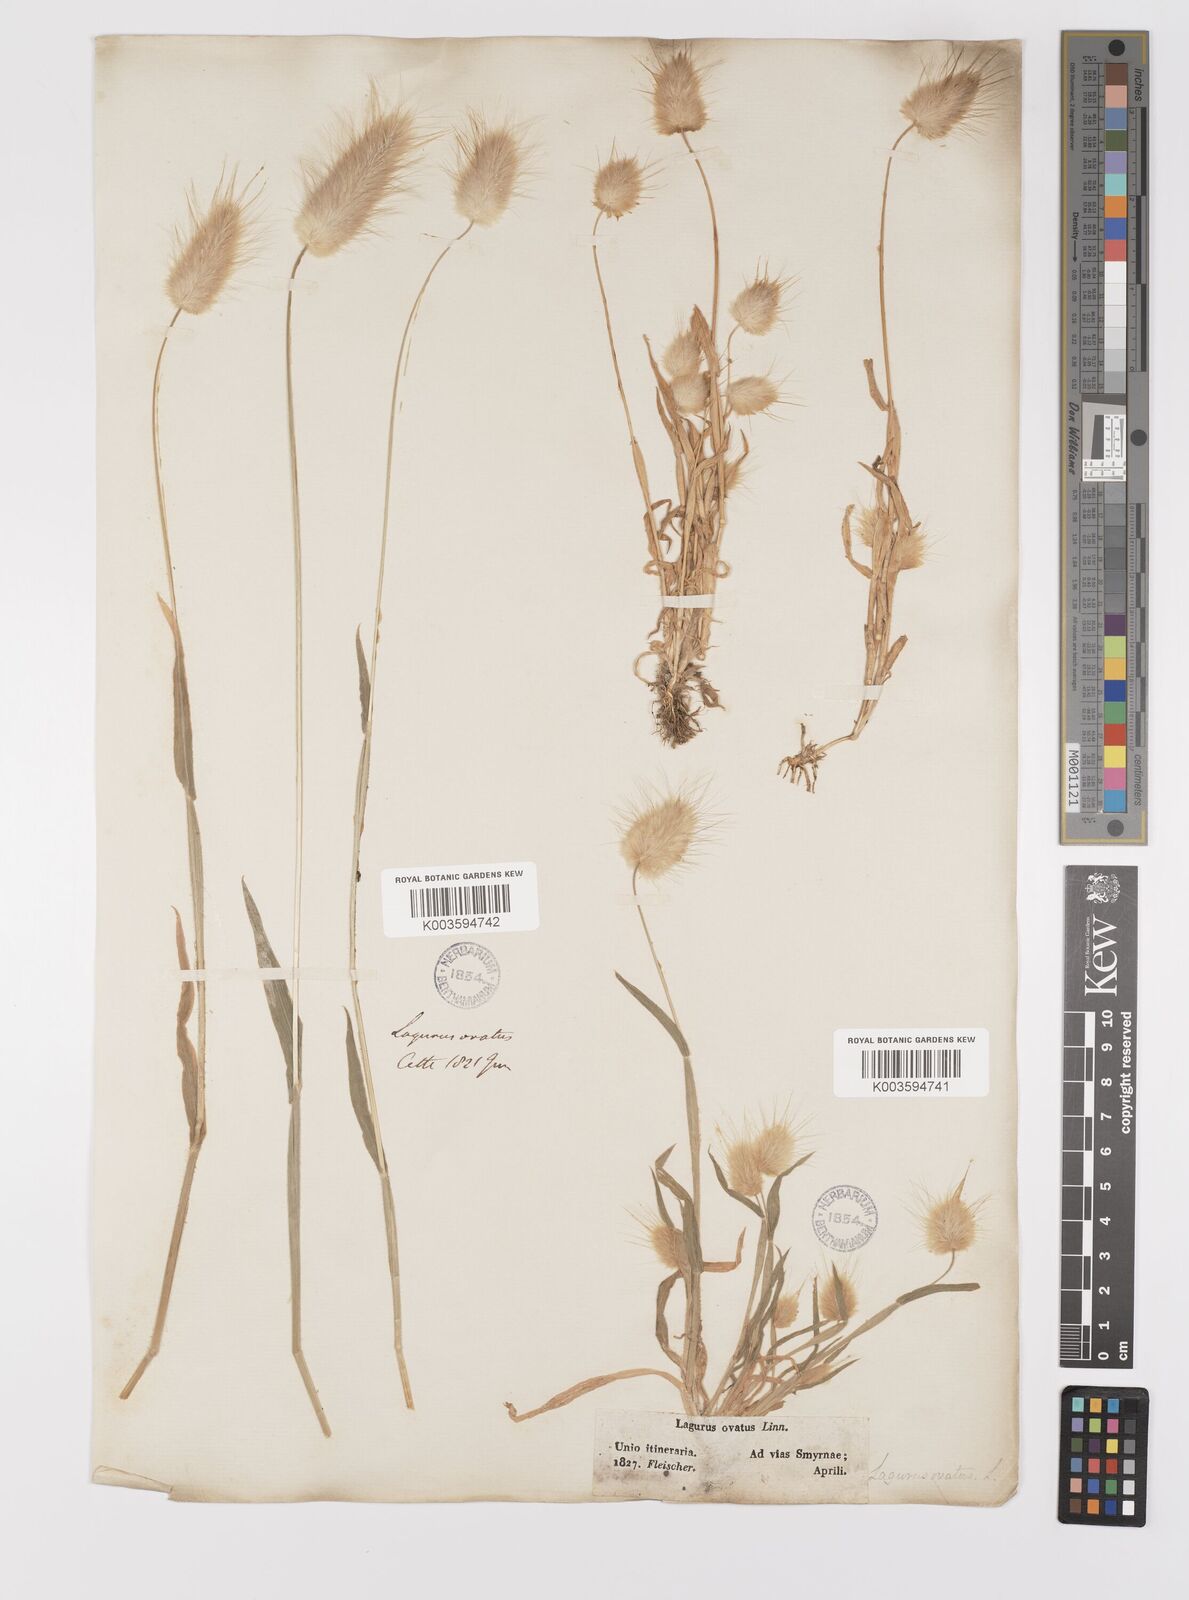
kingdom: Plantae
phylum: Tracheophyta
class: Liliopsida
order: Poales
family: Poaceae
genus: Lagurus
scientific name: Lagurus ovatus
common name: Hare's-tail
